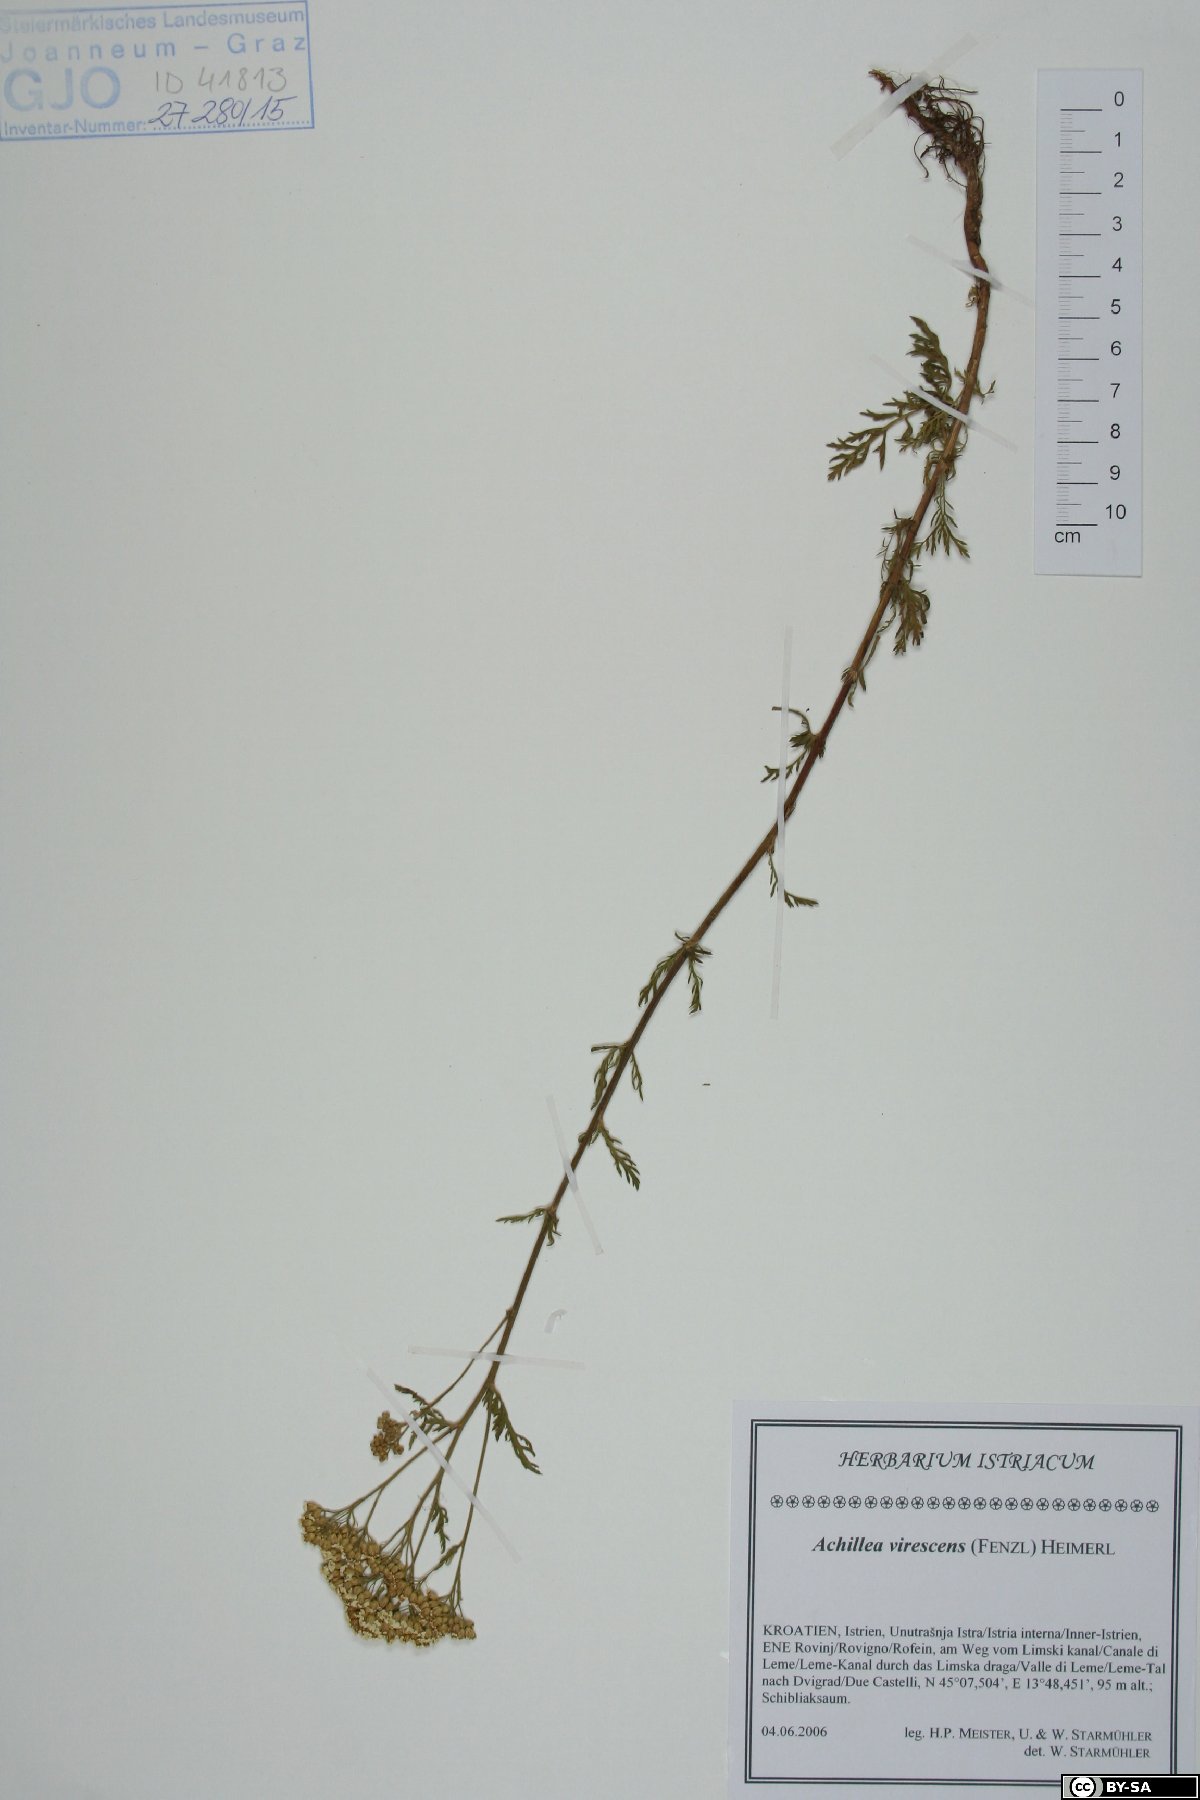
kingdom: Plantae
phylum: Tracheophyta
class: Magnoliopsida
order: Asterales
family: Asteraceae
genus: Achillea
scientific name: Achillea virescens
